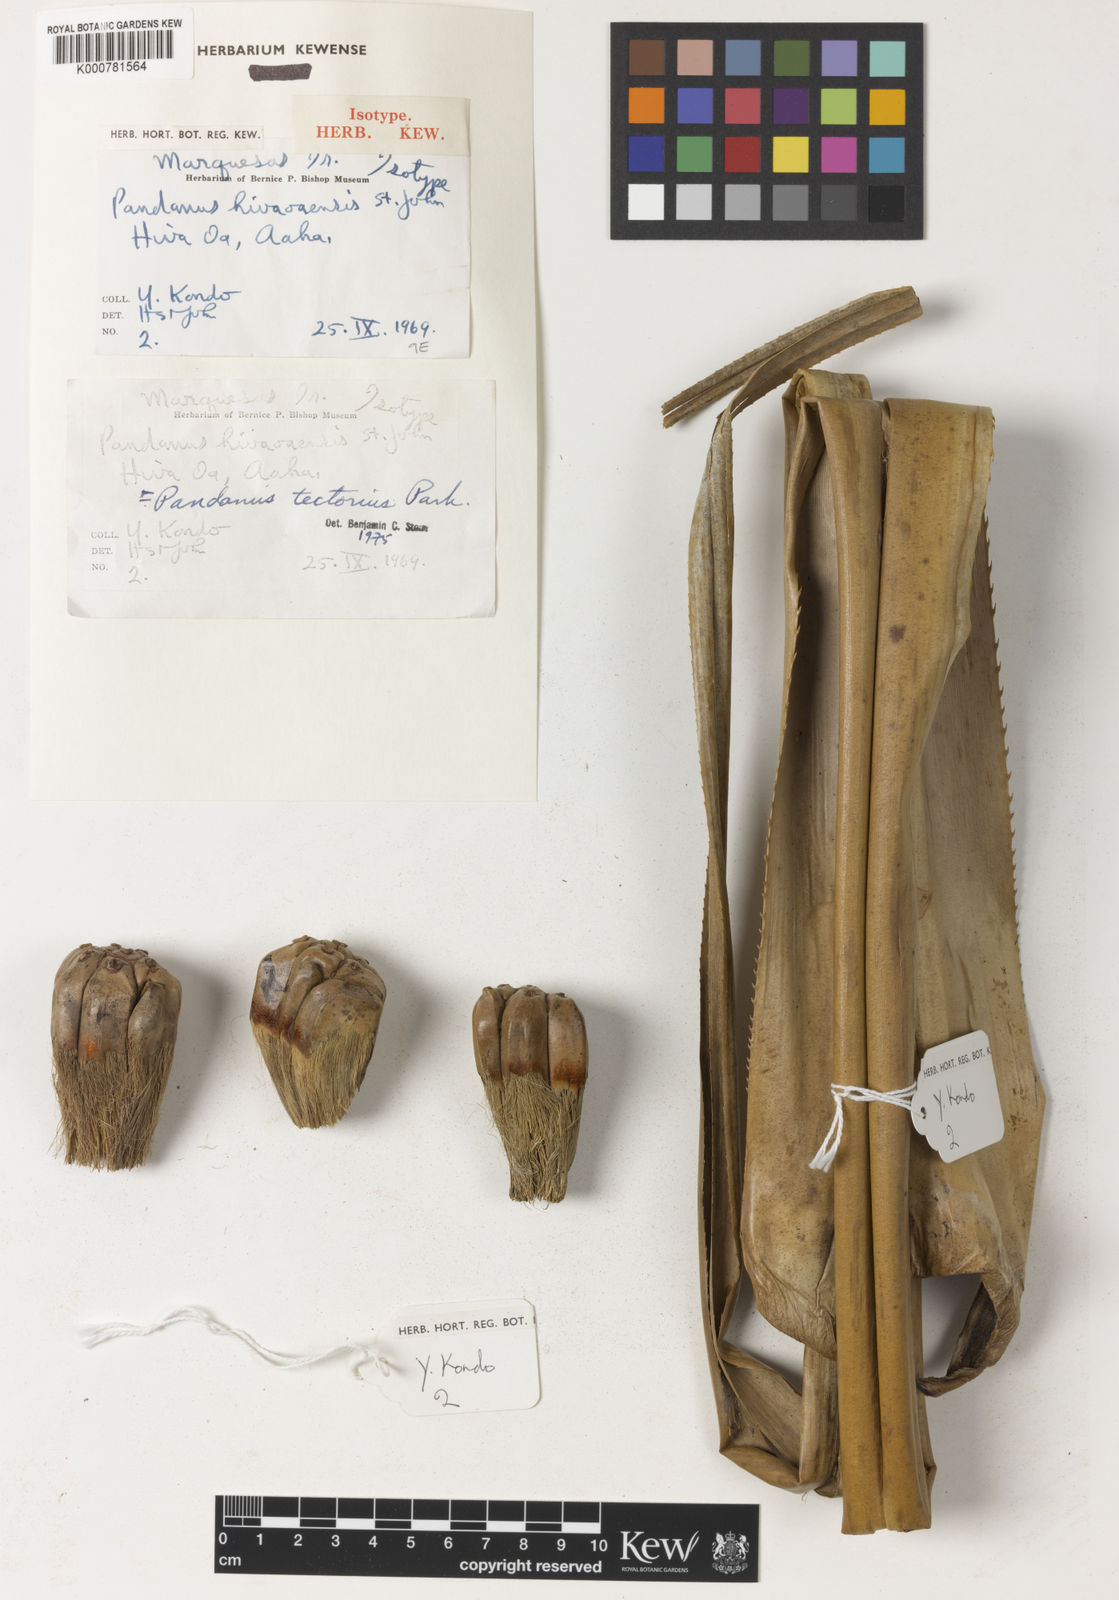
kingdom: Plantae
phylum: Tracheophyta
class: Liliopsida
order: Pandanales
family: Pandanaceae
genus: Pandanus
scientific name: Pandanus tectorius
